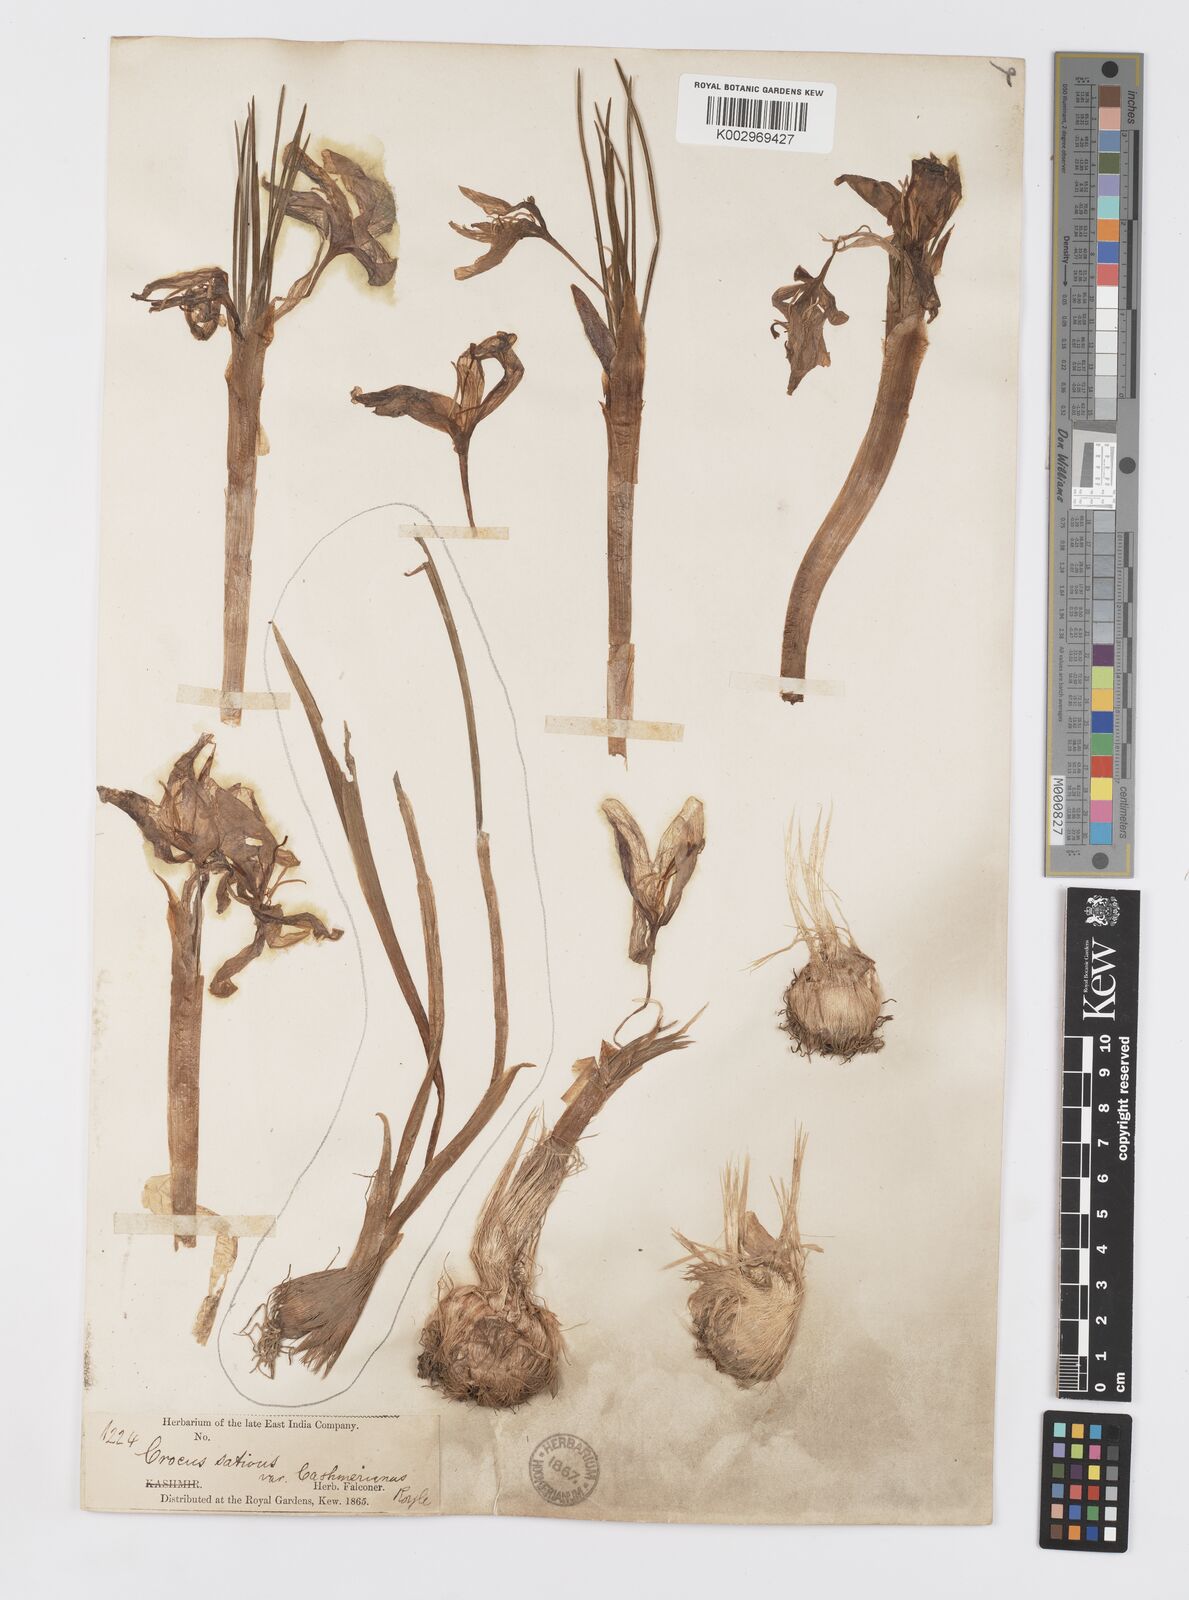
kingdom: Plantae
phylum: Tracheophyta
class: Liliopsida
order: Asparagales
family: Iridaceae
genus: Crocus
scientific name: Crocus sativus
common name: Saffron crocus
